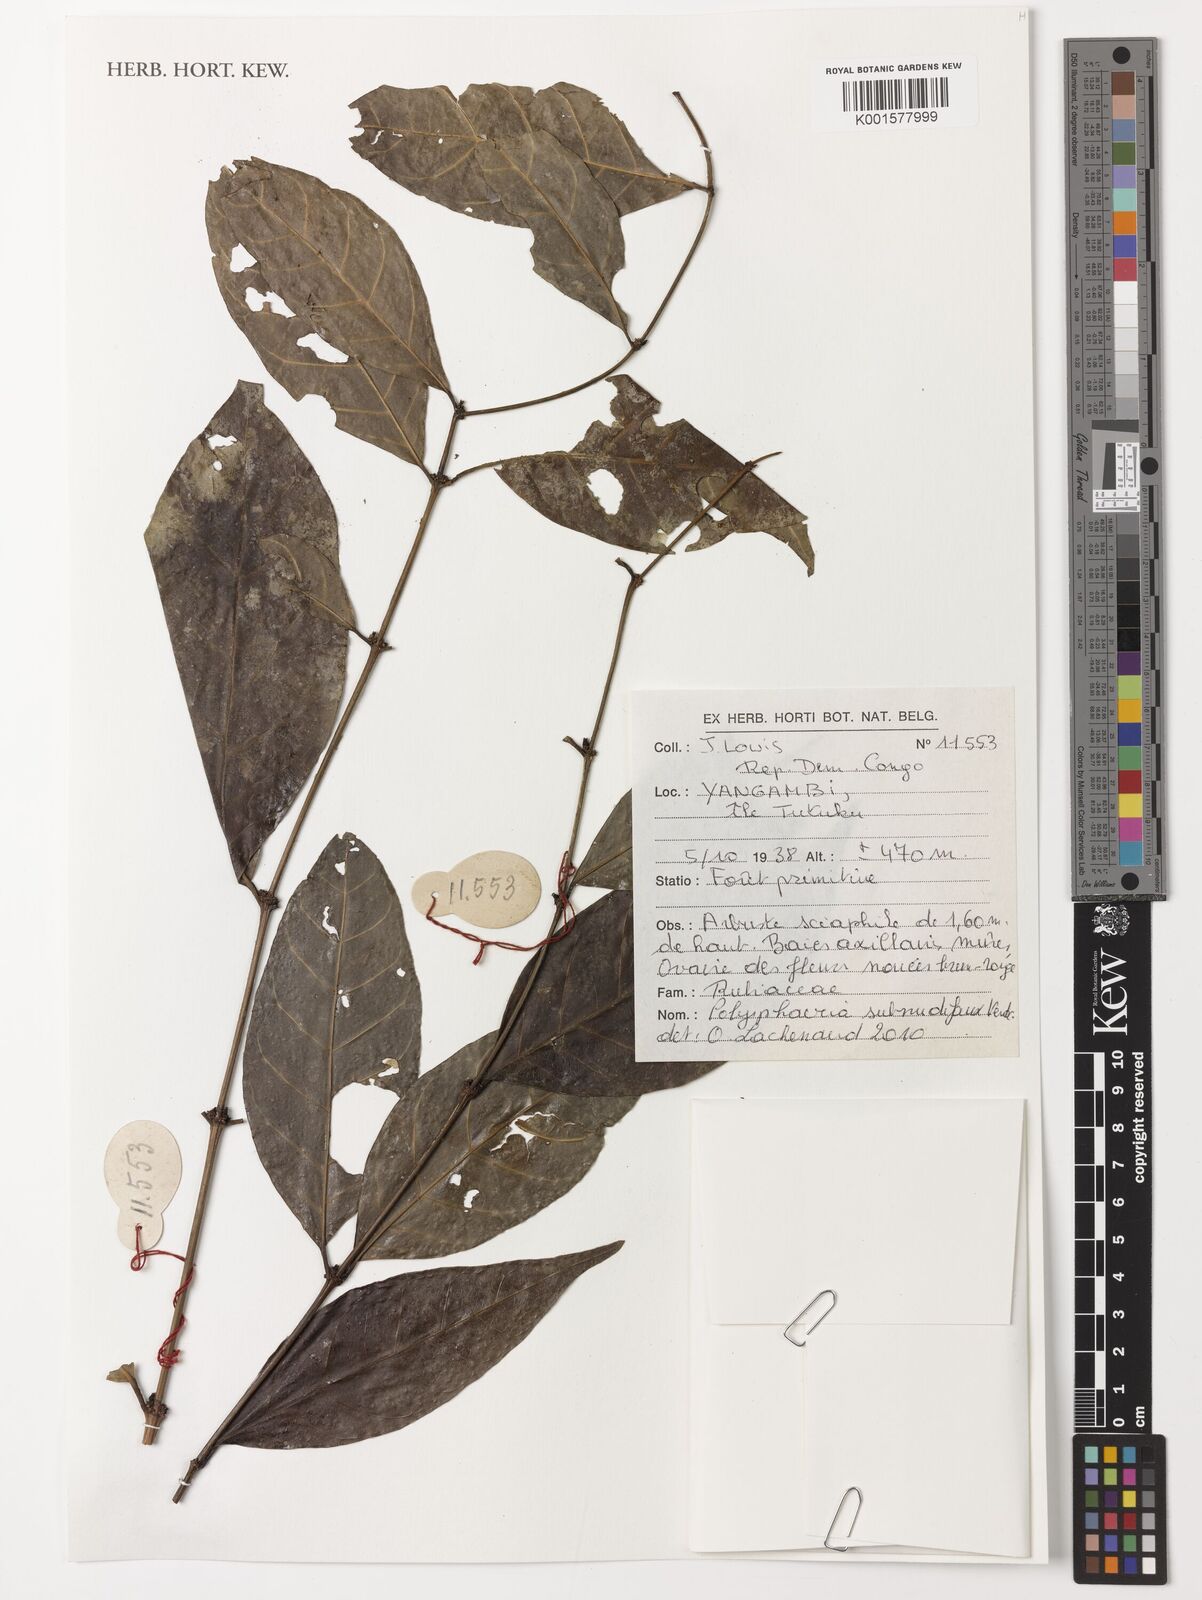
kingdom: Plantae
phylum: Tracheophyta
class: Magnoliopsida
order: Gentianales
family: Rubiaceae
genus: Polysphaeria
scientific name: Polysphaeria subnudifaux
